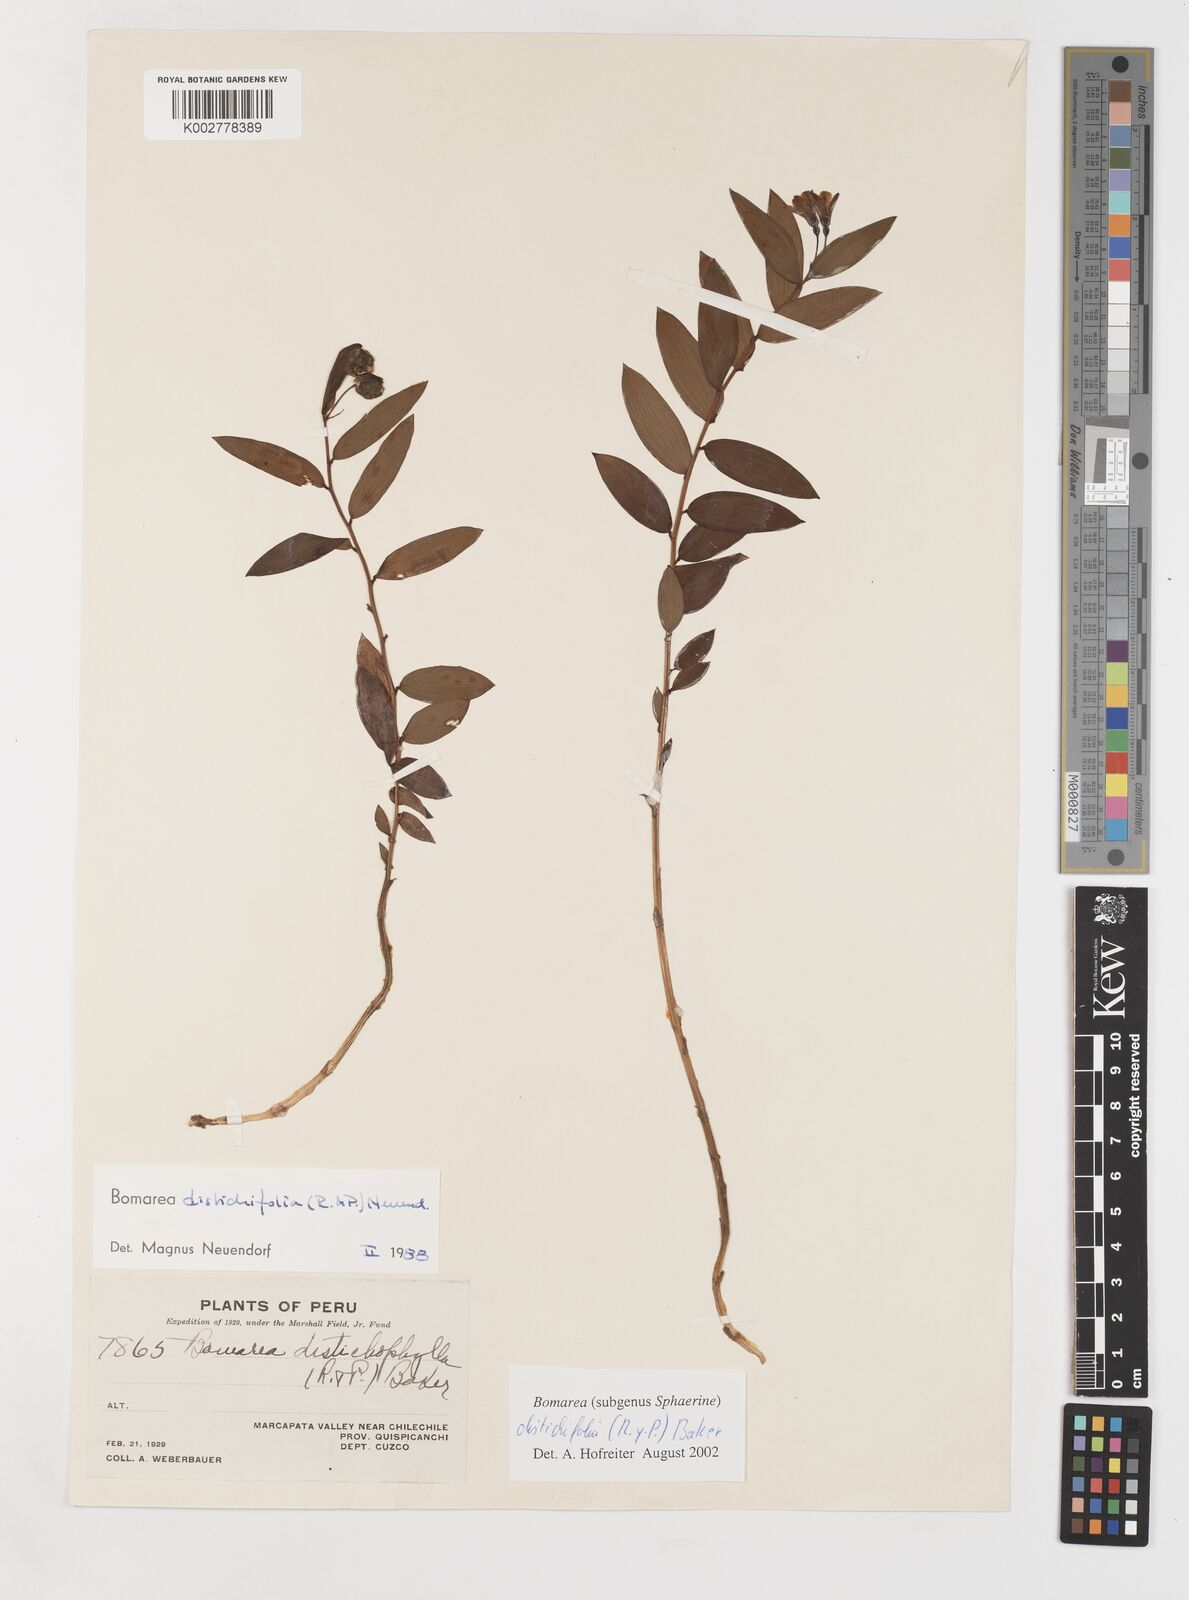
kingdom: Plantae
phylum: Tracheophyta
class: Liliopsida
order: Liliales
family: Alstroemeriaceae
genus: Bomarea
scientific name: Bomarea distichifolia
